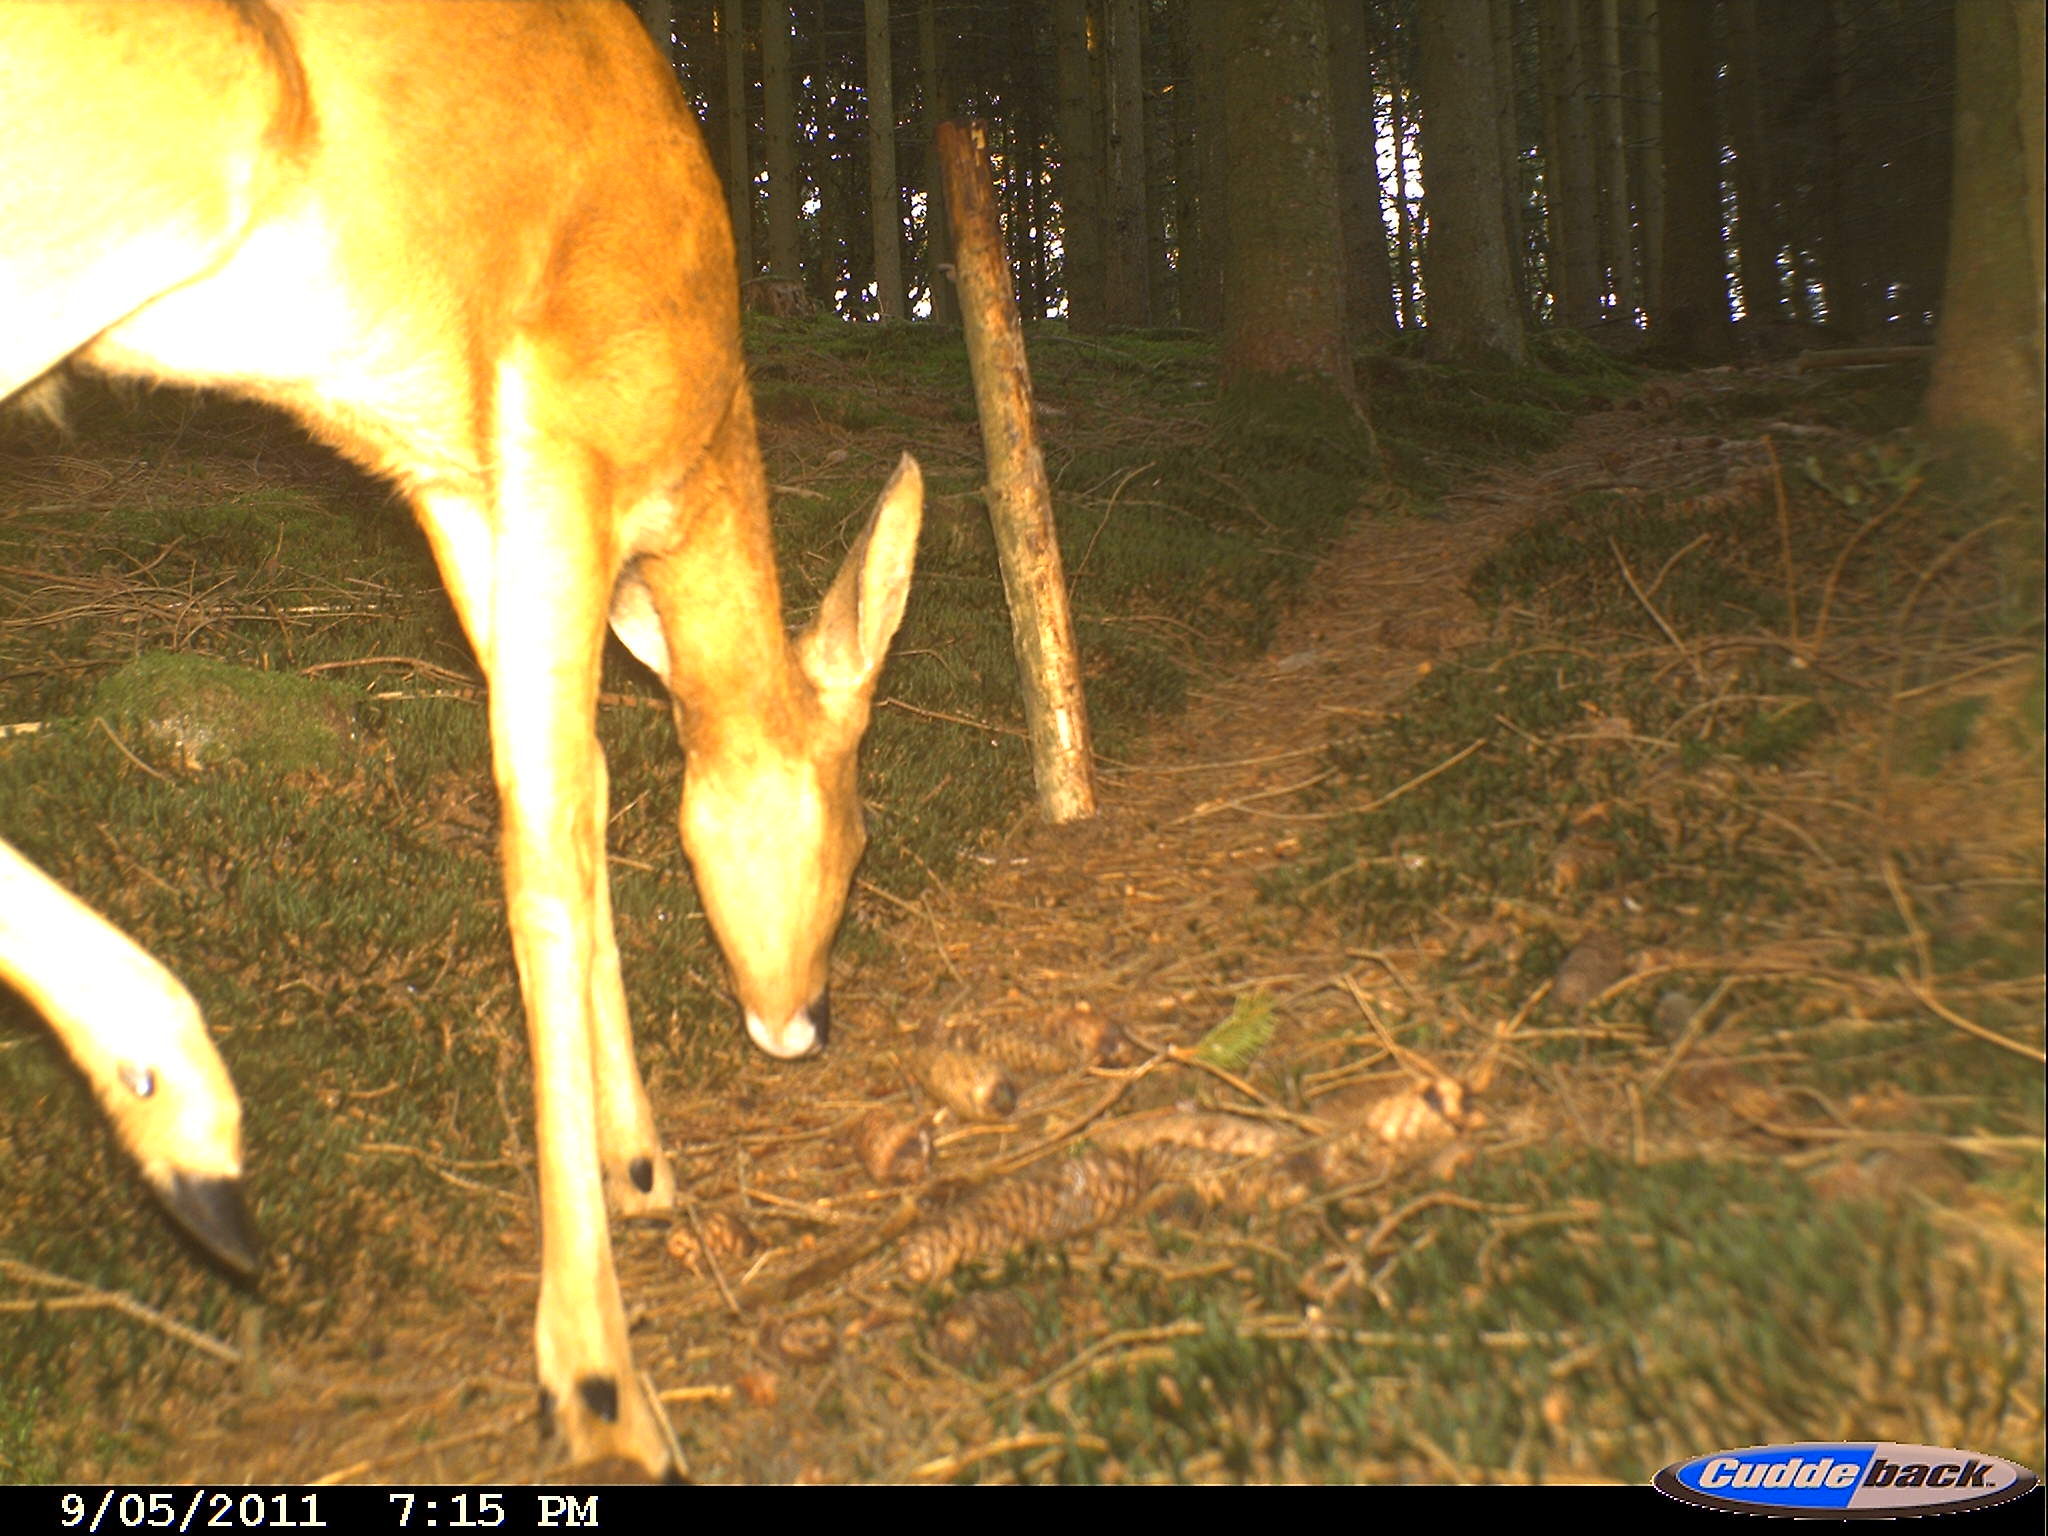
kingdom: Animalia
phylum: Chordata
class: Mammalia
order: Artiodactyla
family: Cervidae
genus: Capreolus
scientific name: Capreolus capreolus
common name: Western roe deer
